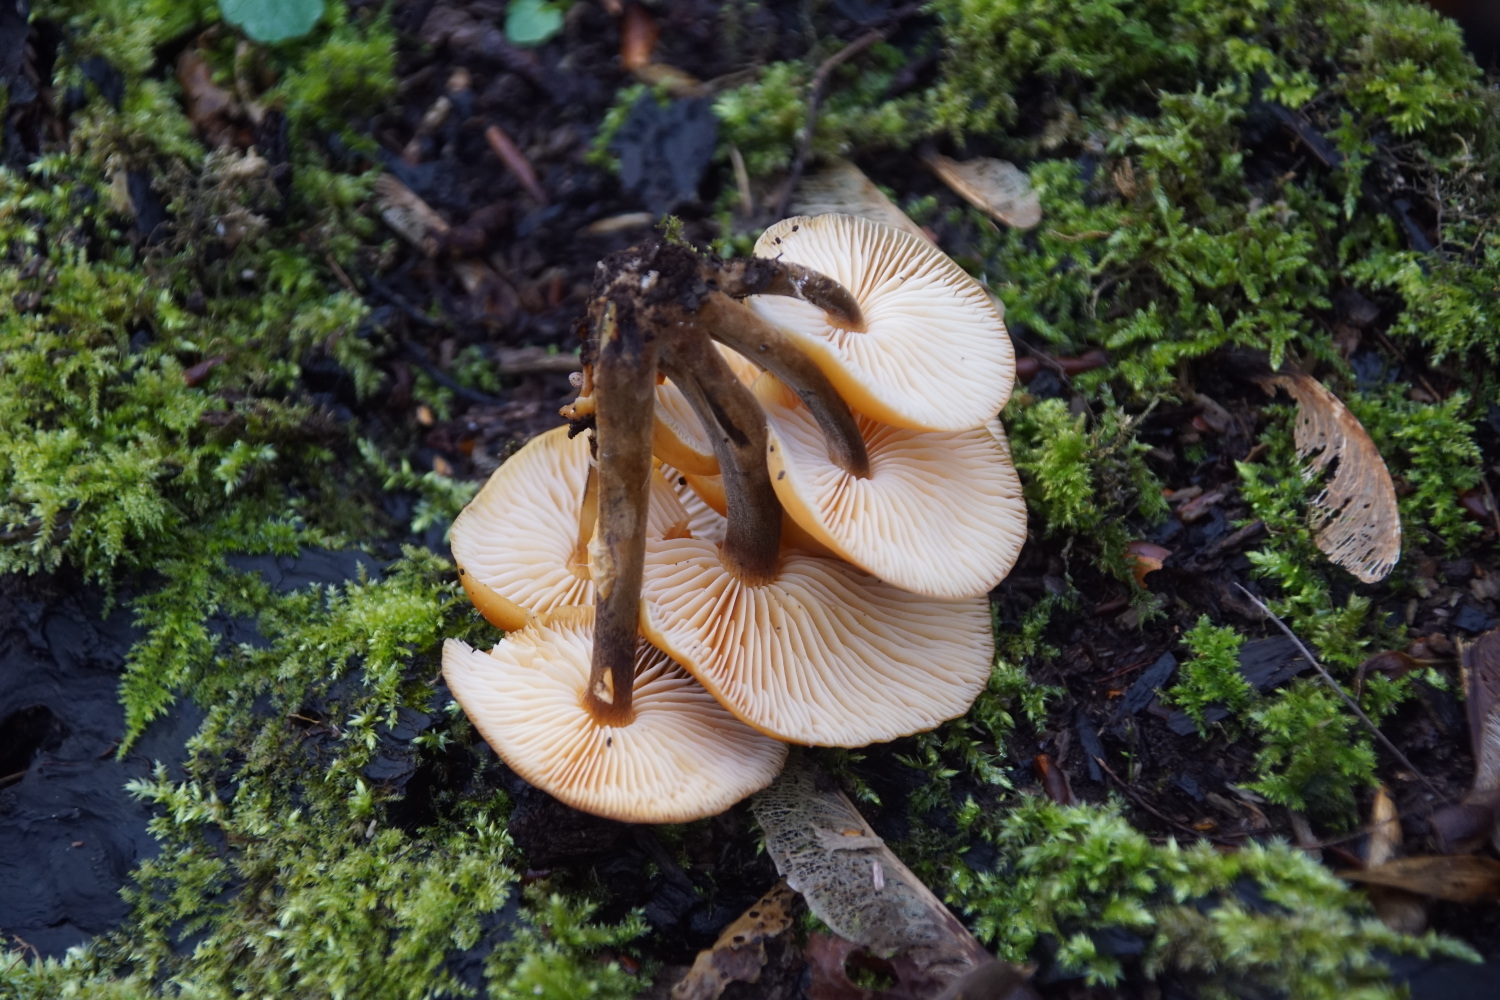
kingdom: Fungi
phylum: Basidiomycota
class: Agaricomycetes
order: Agaricales
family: Physalacriaceae
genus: Flammulina
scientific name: Flammulina velutipes
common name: gul fløjlsfod
